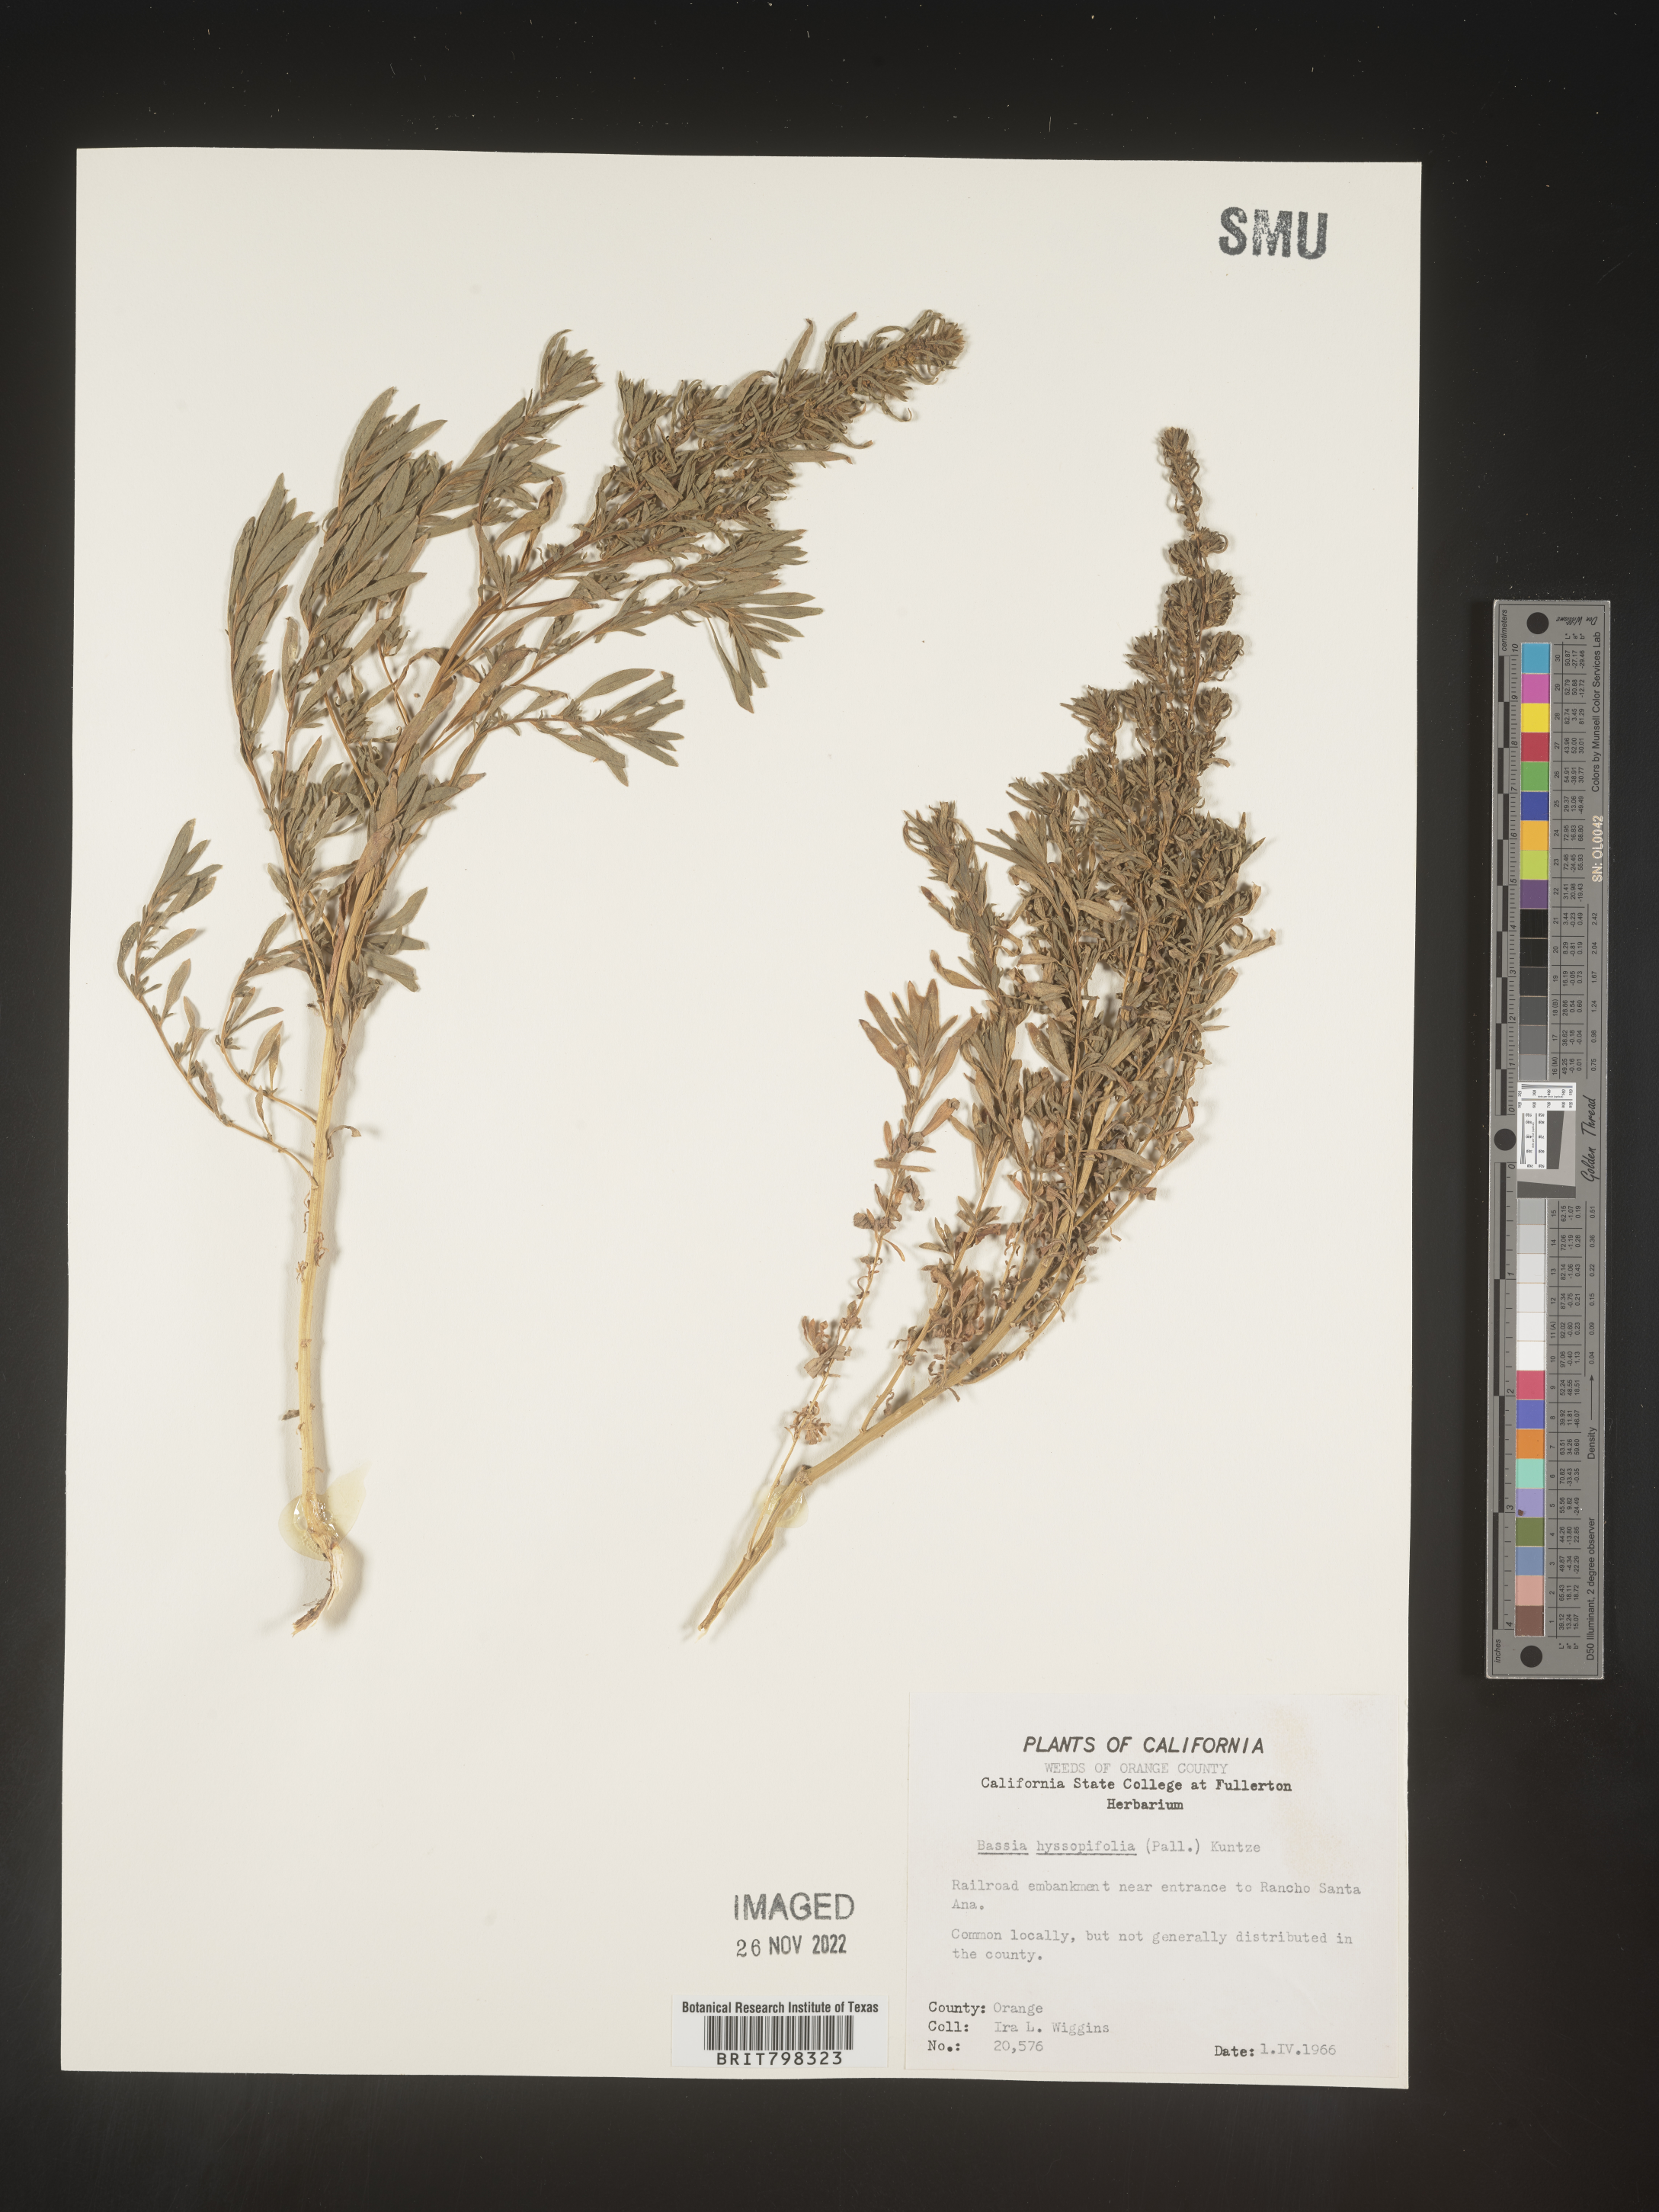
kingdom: Plantae
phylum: Tracheophyta
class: Magnoliopsida
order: Caryophyllales
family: Amaranthaceae
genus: Bassia
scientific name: Bassia hyssopifolia
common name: Fivehorn smotherweed
